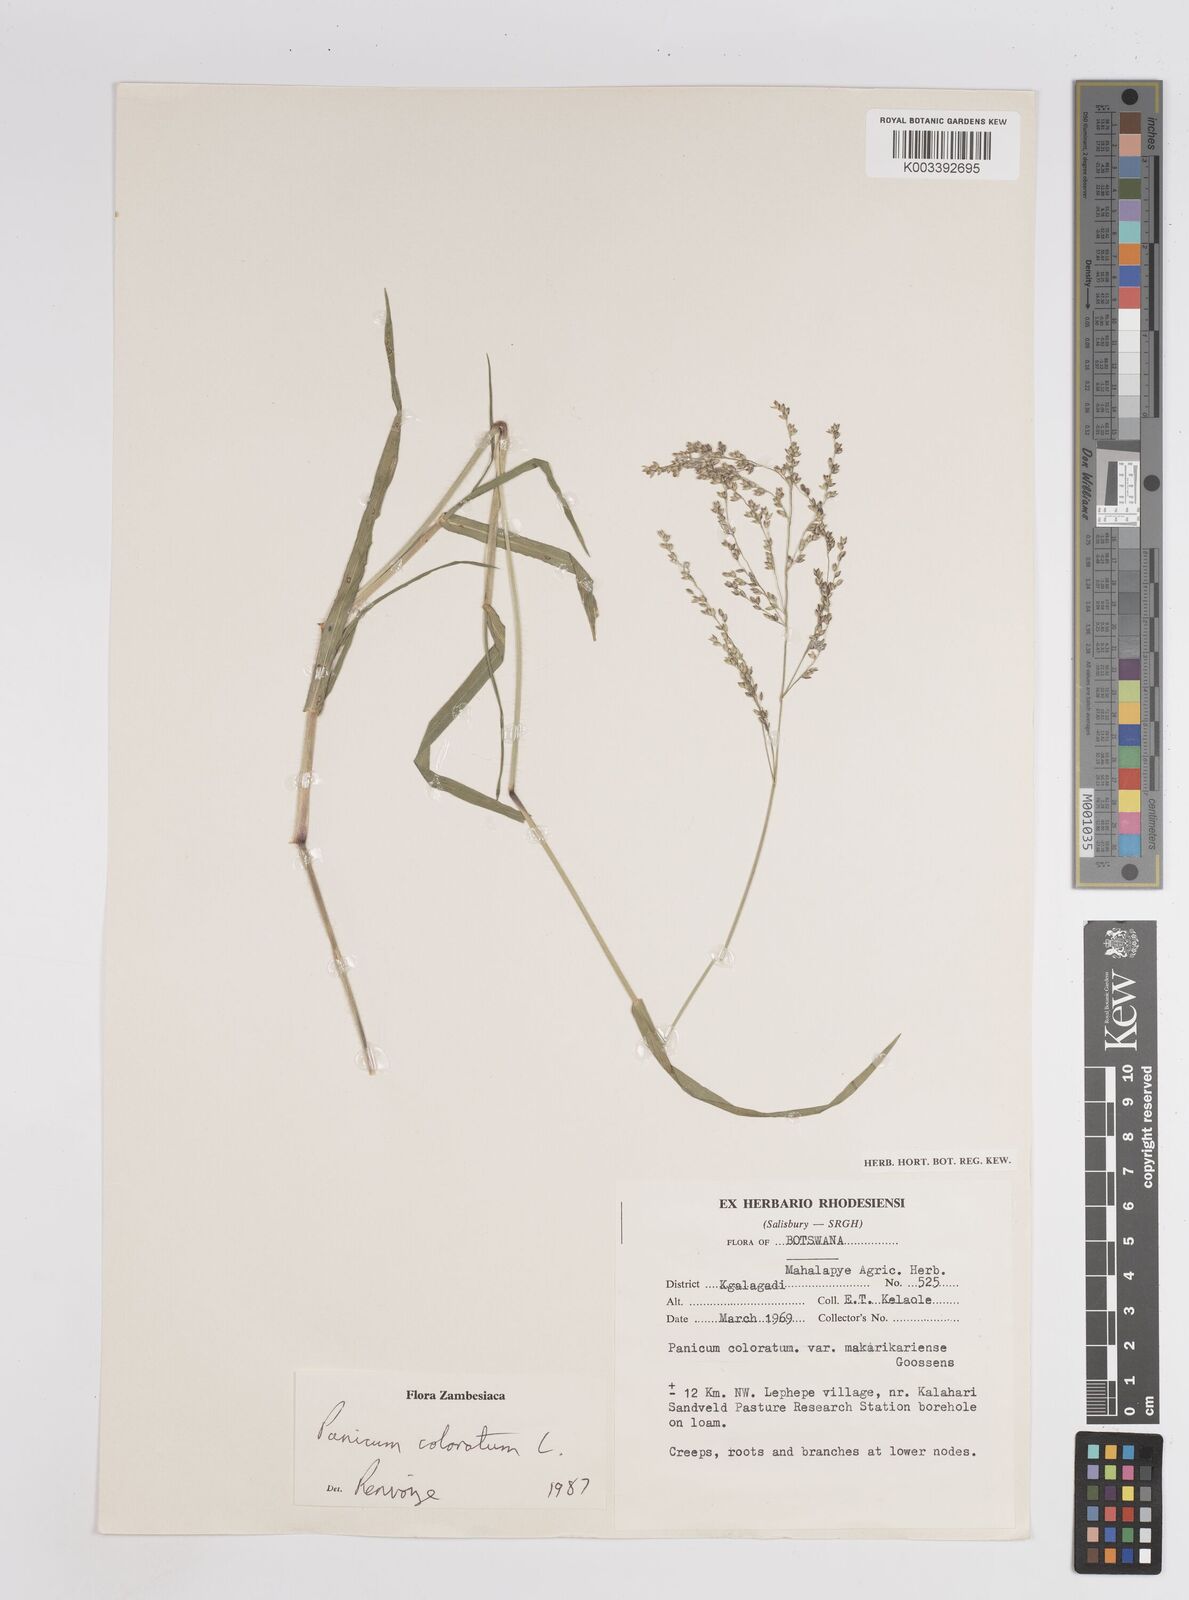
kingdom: Plantae
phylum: Tracheophyta
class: Liliopsida
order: Poales
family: Poaceae
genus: Panicum
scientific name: Panicum coloratum
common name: Kleingrass
